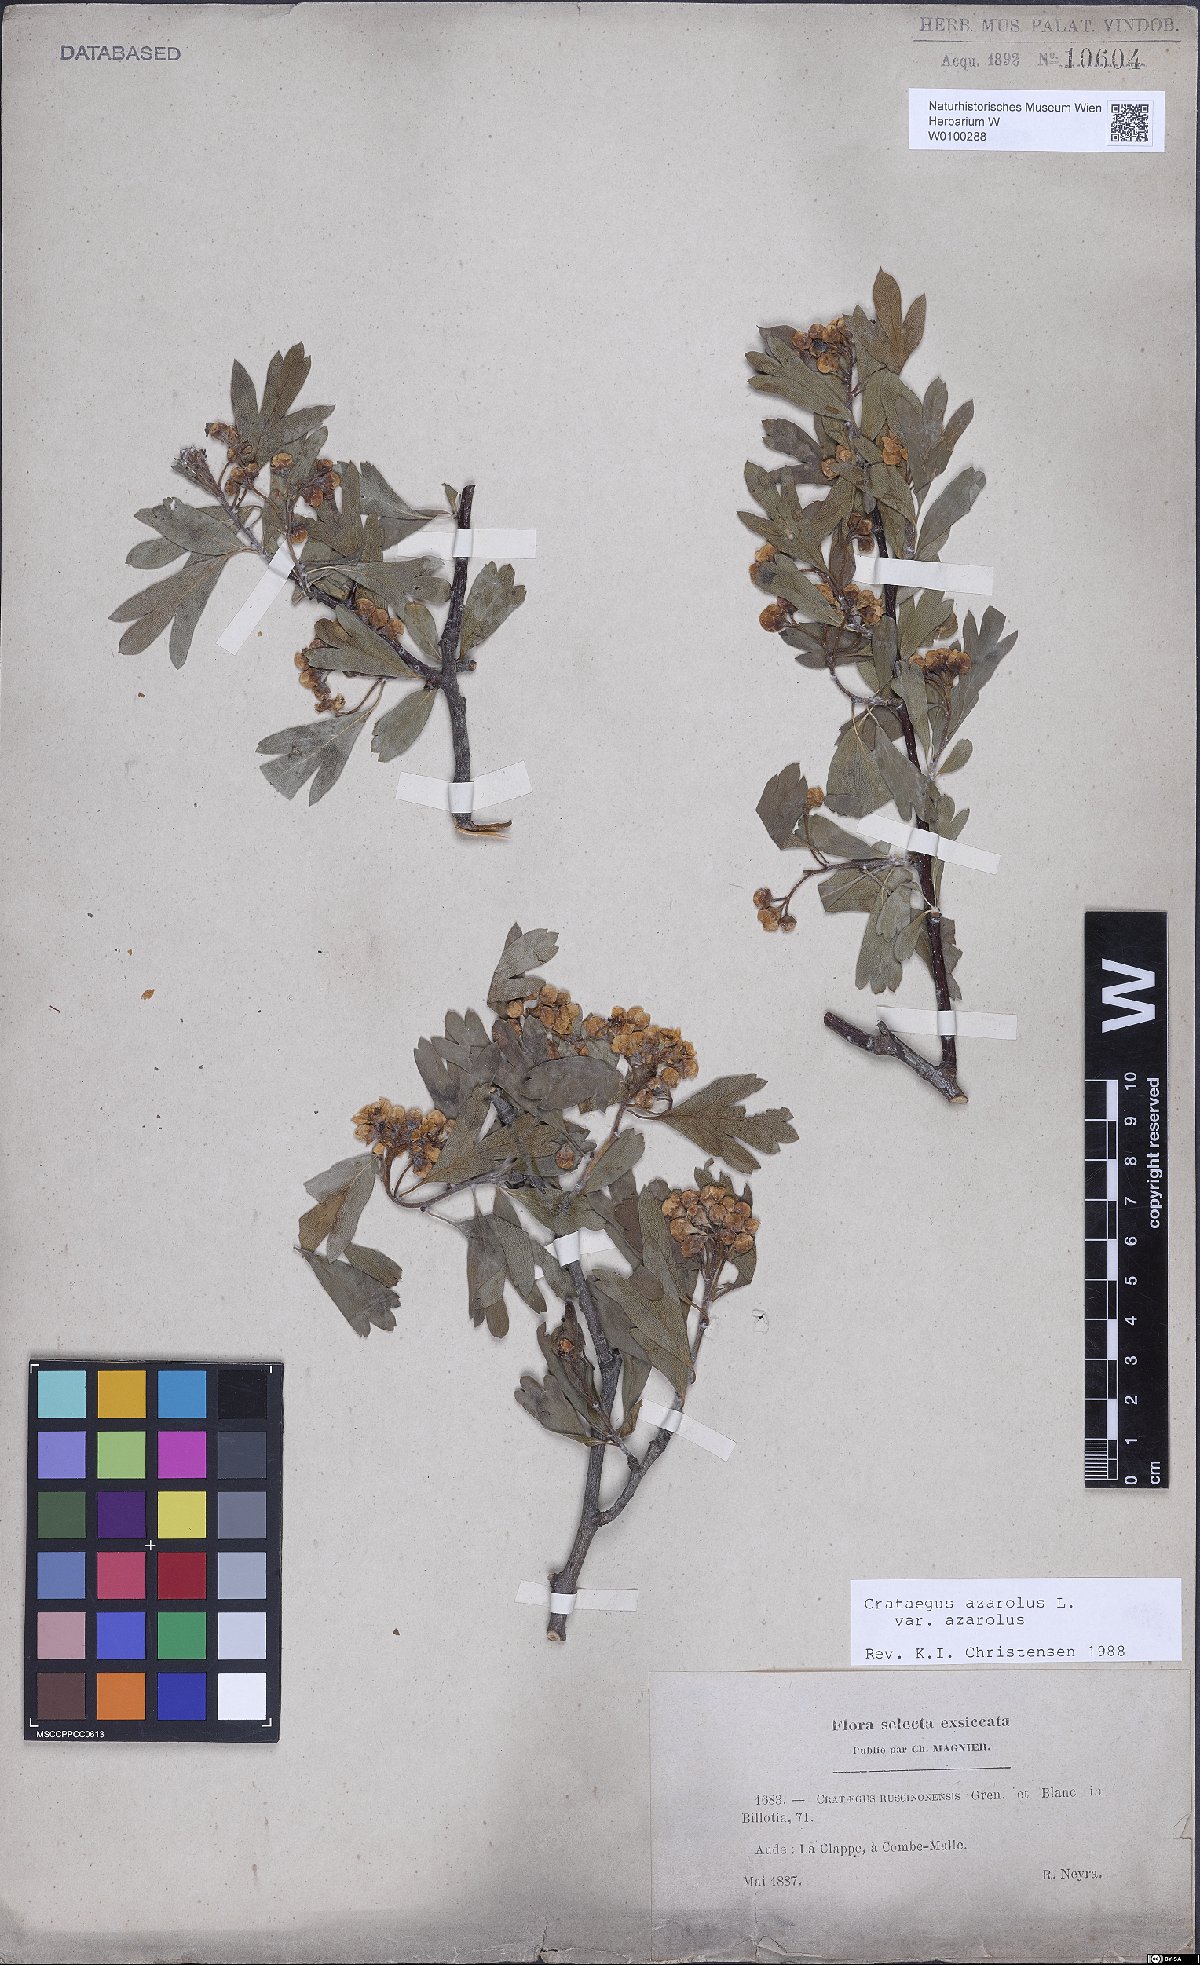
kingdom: Plantae
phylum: Tracheophyta
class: Magnoliopsida
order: Rosales
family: Rosaceae
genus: Crataegus
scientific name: Crataegus azarolus
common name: Azarole
